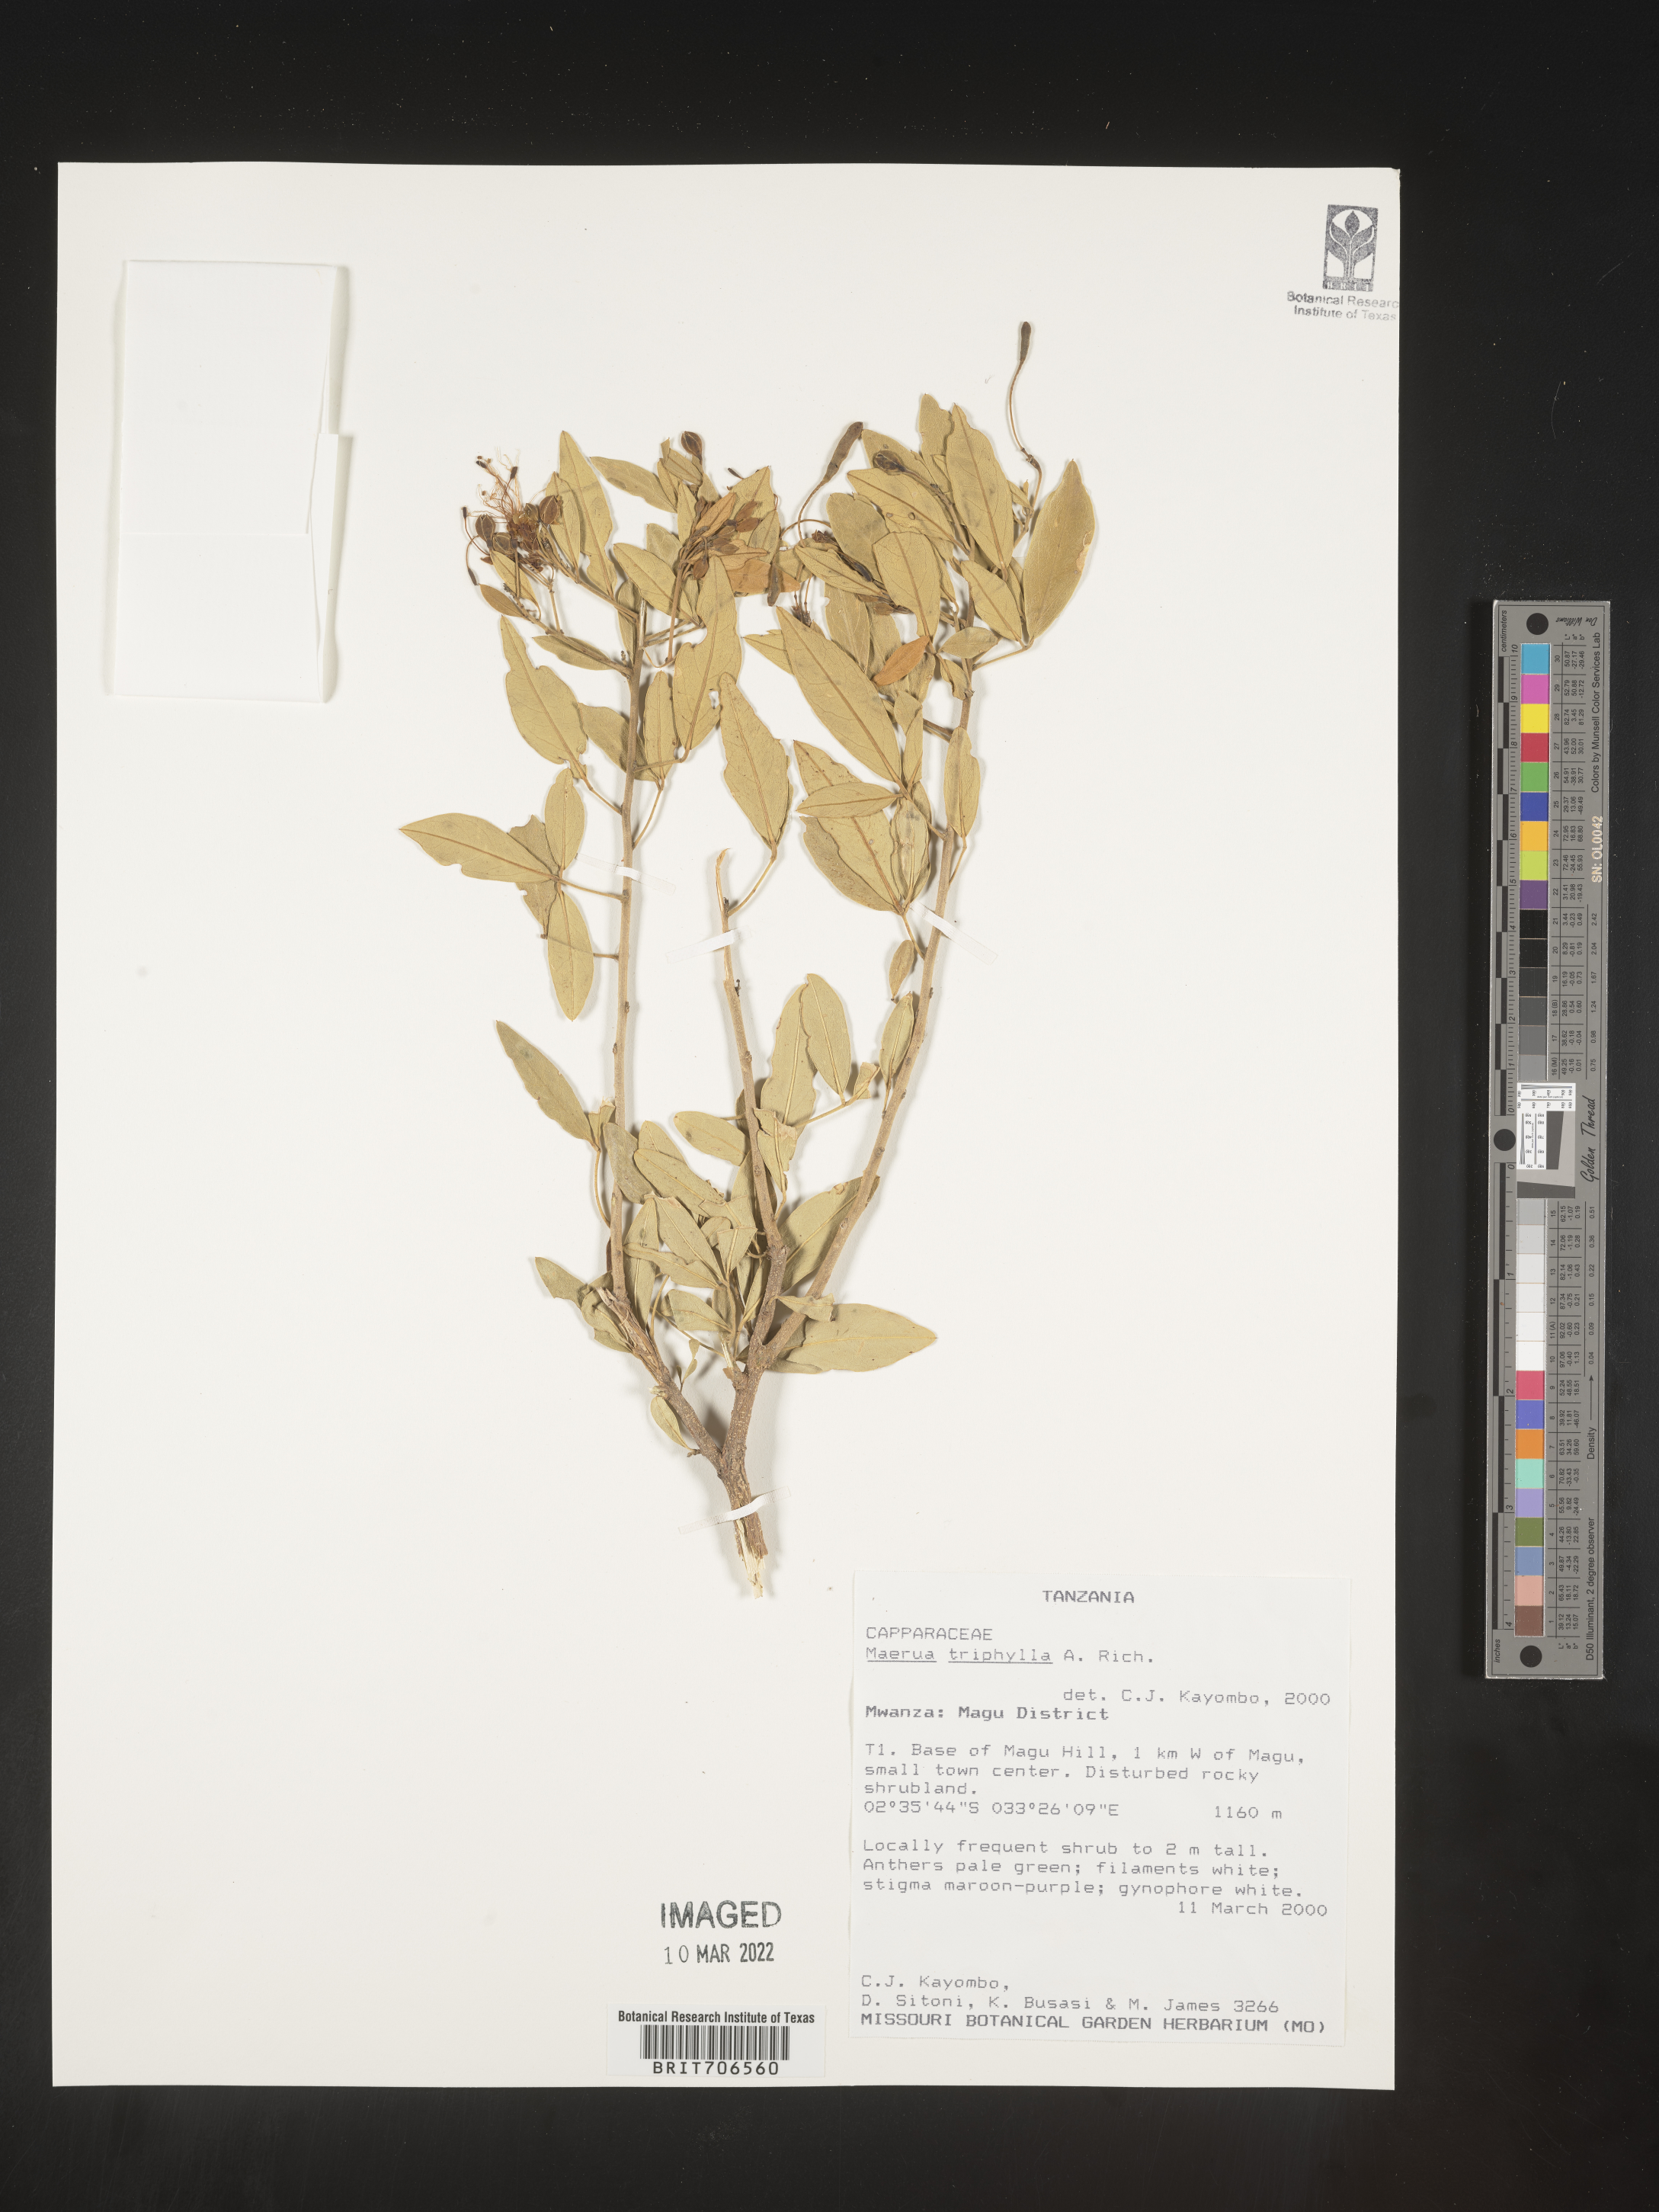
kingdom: Plantae
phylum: Tracheophyta
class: Magnoliopsida
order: Brassicales
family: Capparaceae
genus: Maerua
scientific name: Maerua
